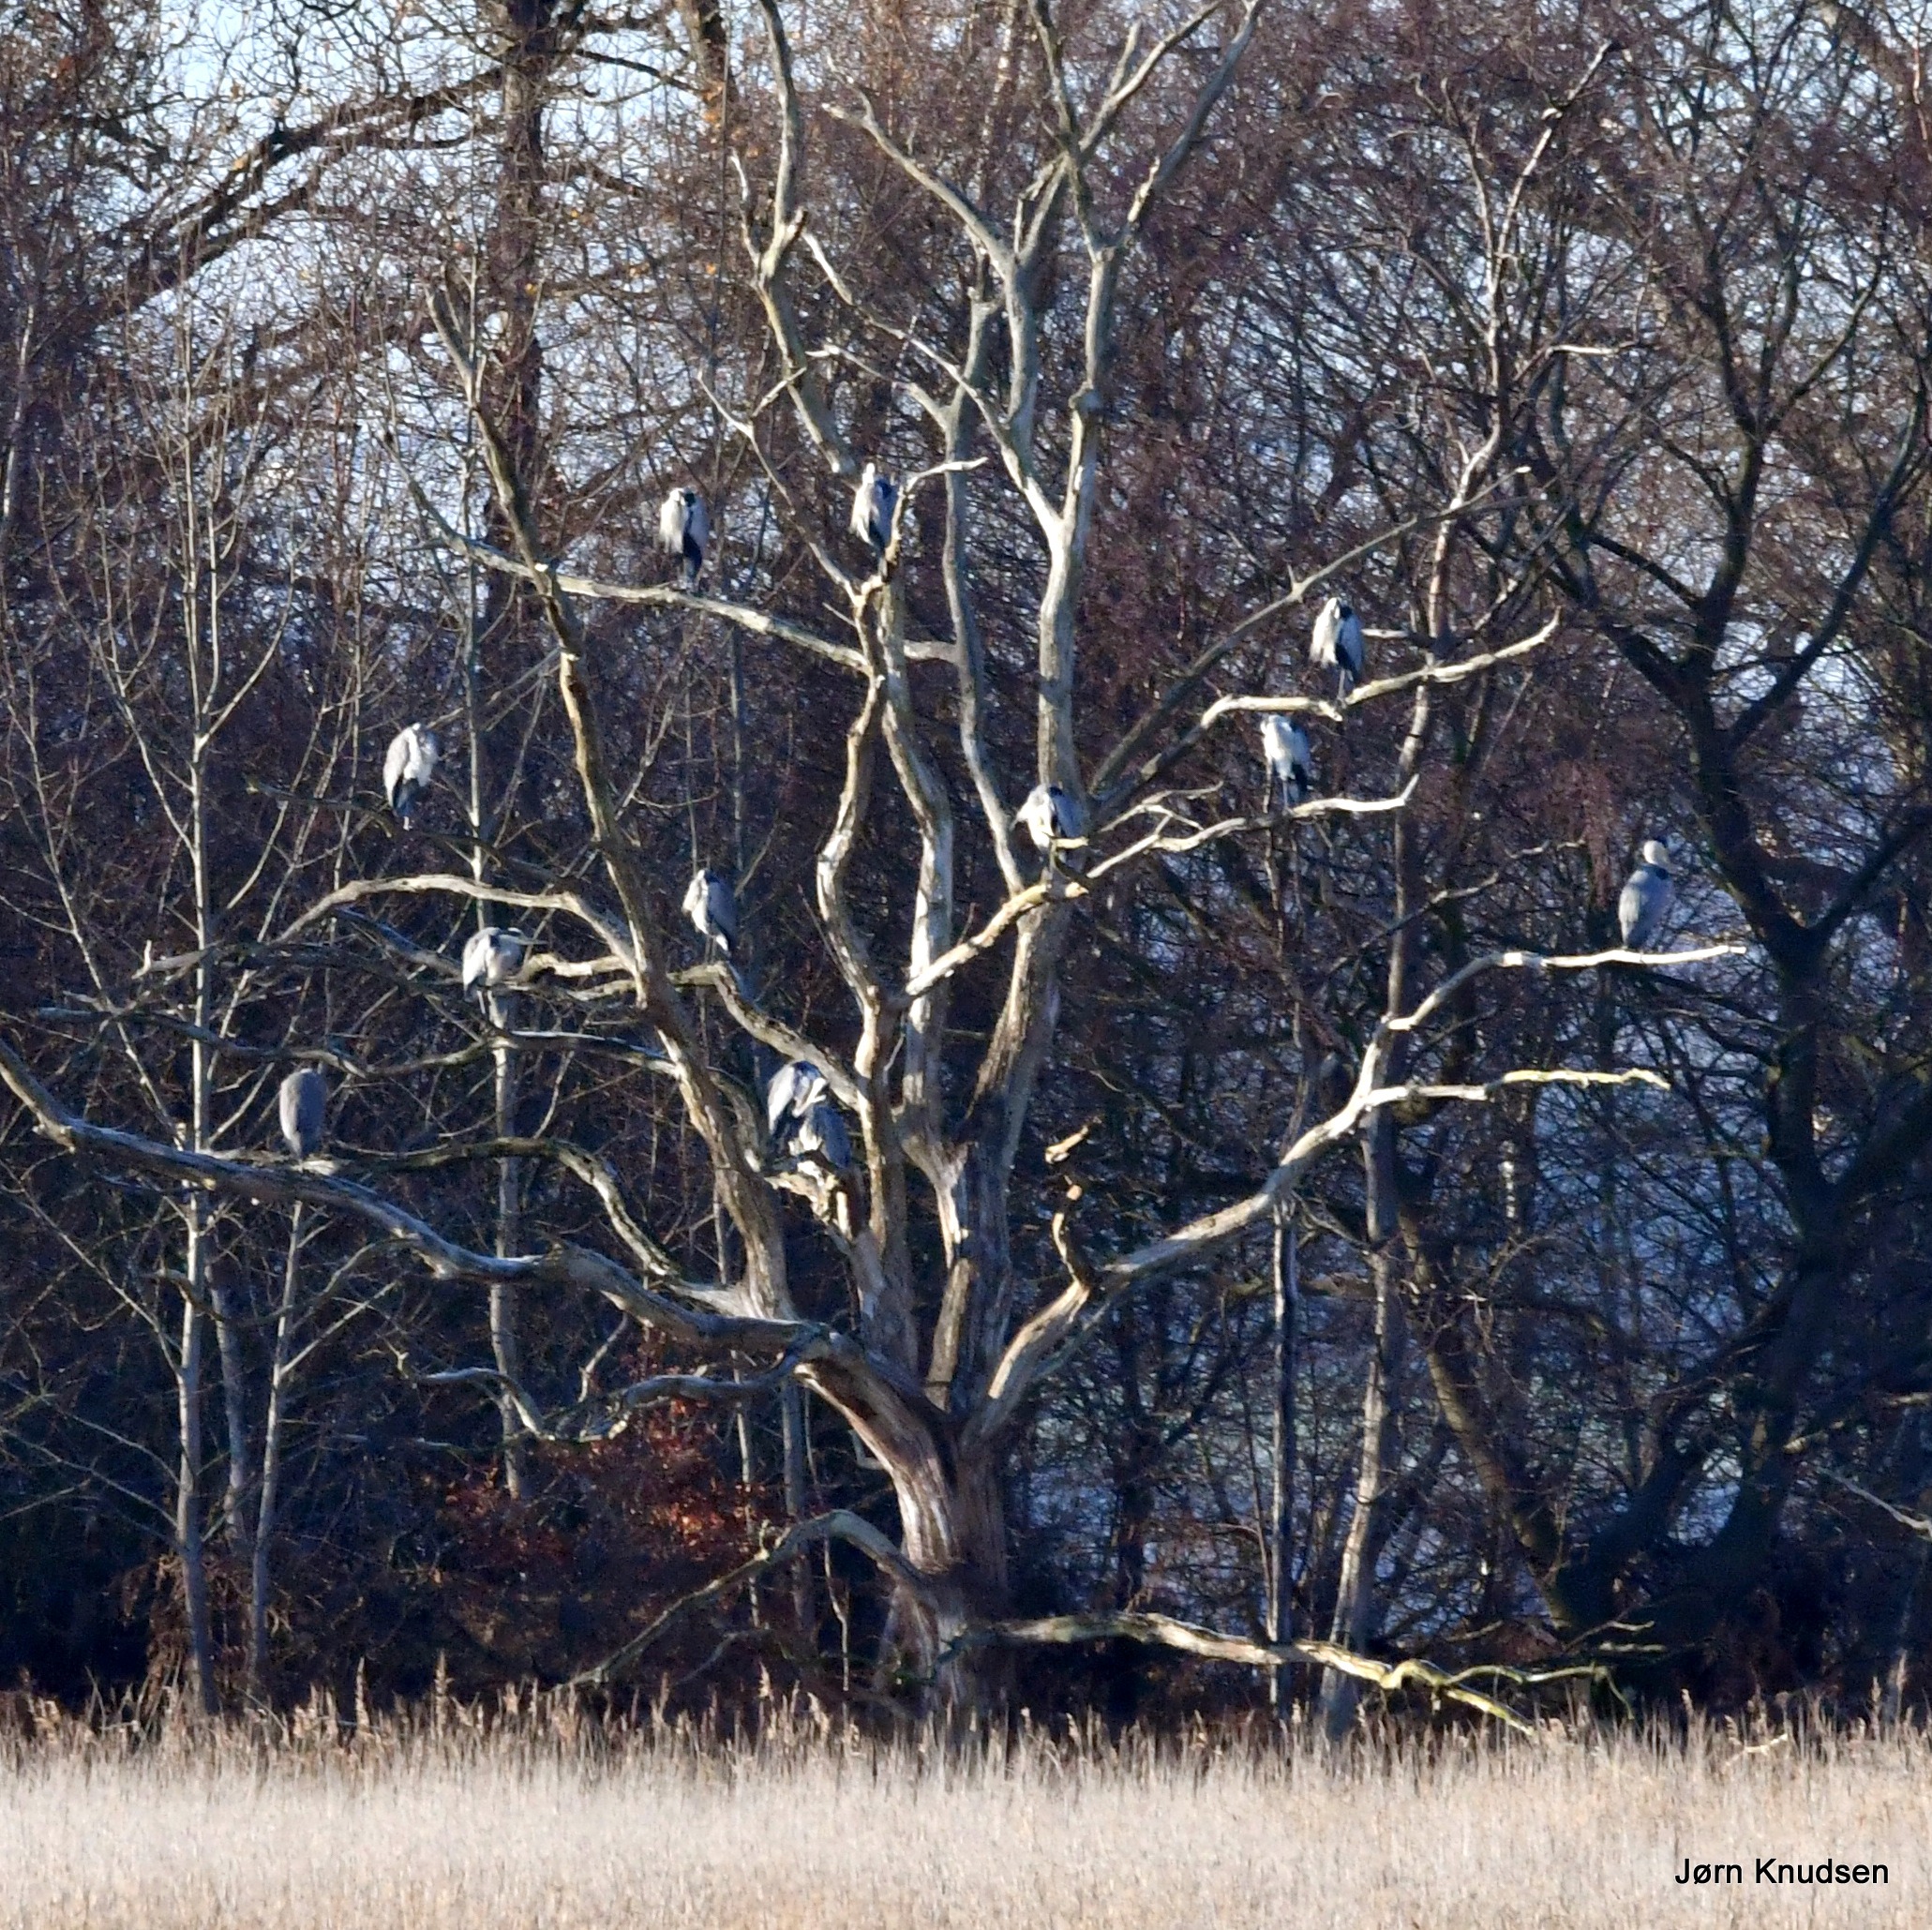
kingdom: Animalia
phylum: Chordata
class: Aves
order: Pelecaniformes
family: Ardeidae
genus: Ardea
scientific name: Ardea cinerea
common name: Fiskehejre
